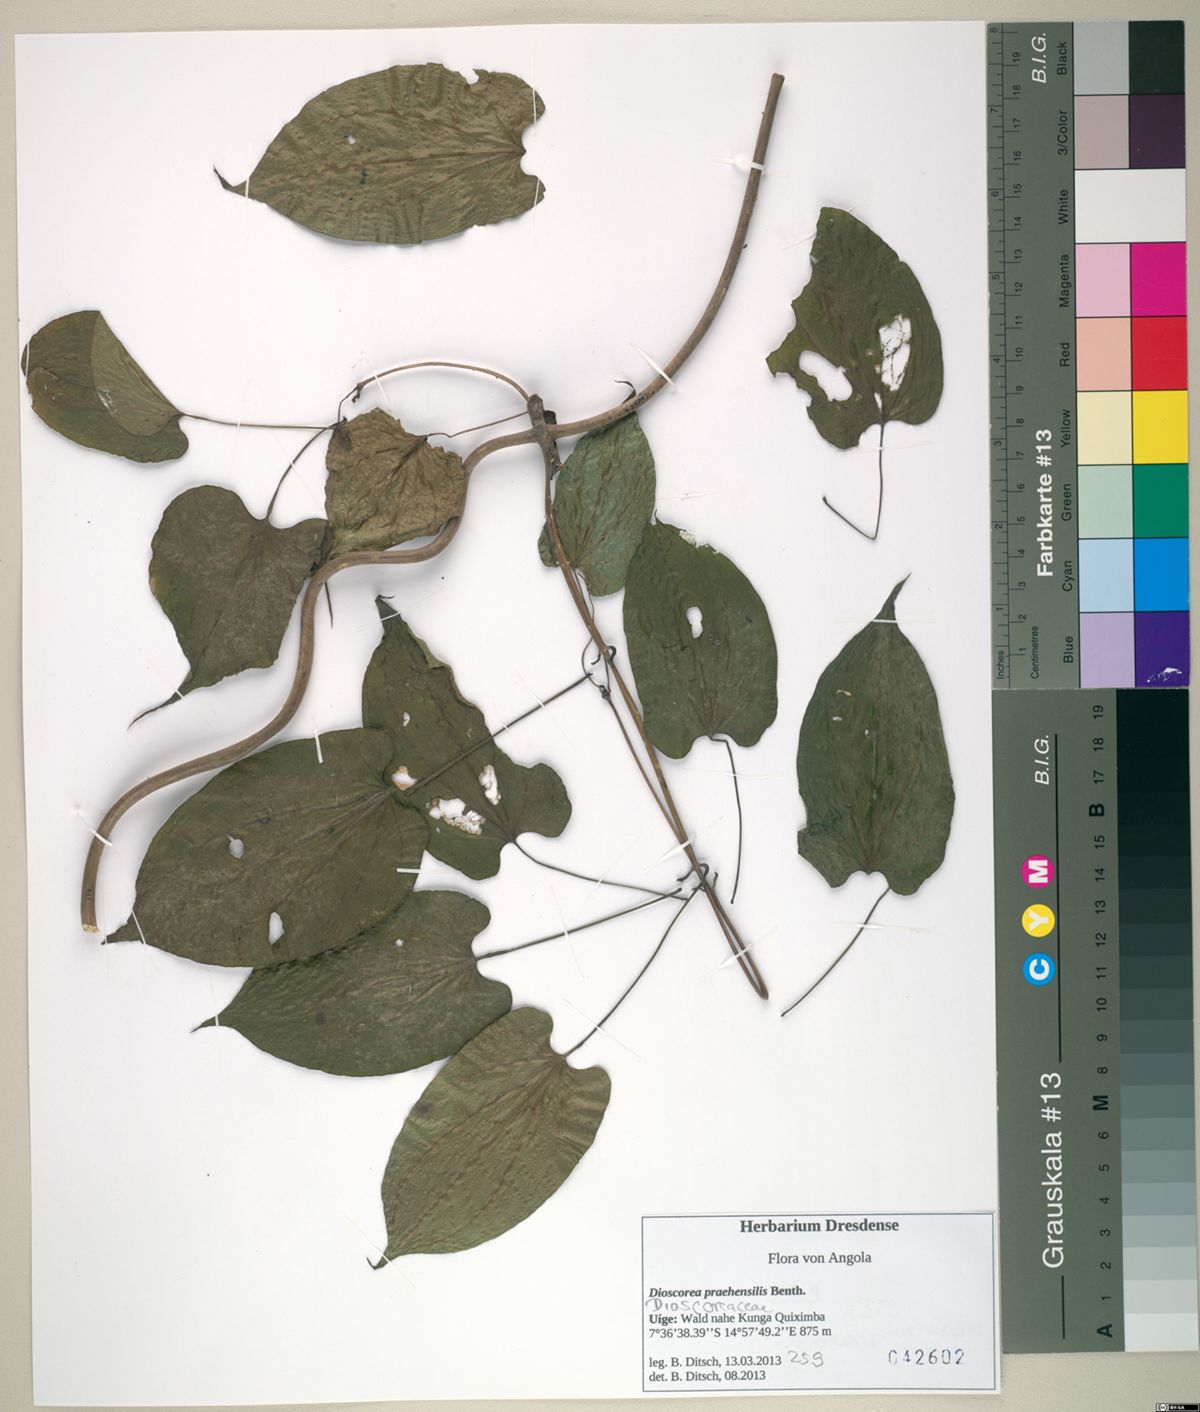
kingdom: Plantae
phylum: Tracheophyta
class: Liliopsida
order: Dioscoreales
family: Dioscoreaceae
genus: Dioscorea
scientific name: Dioscorea praehensilis
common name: Bush yam
